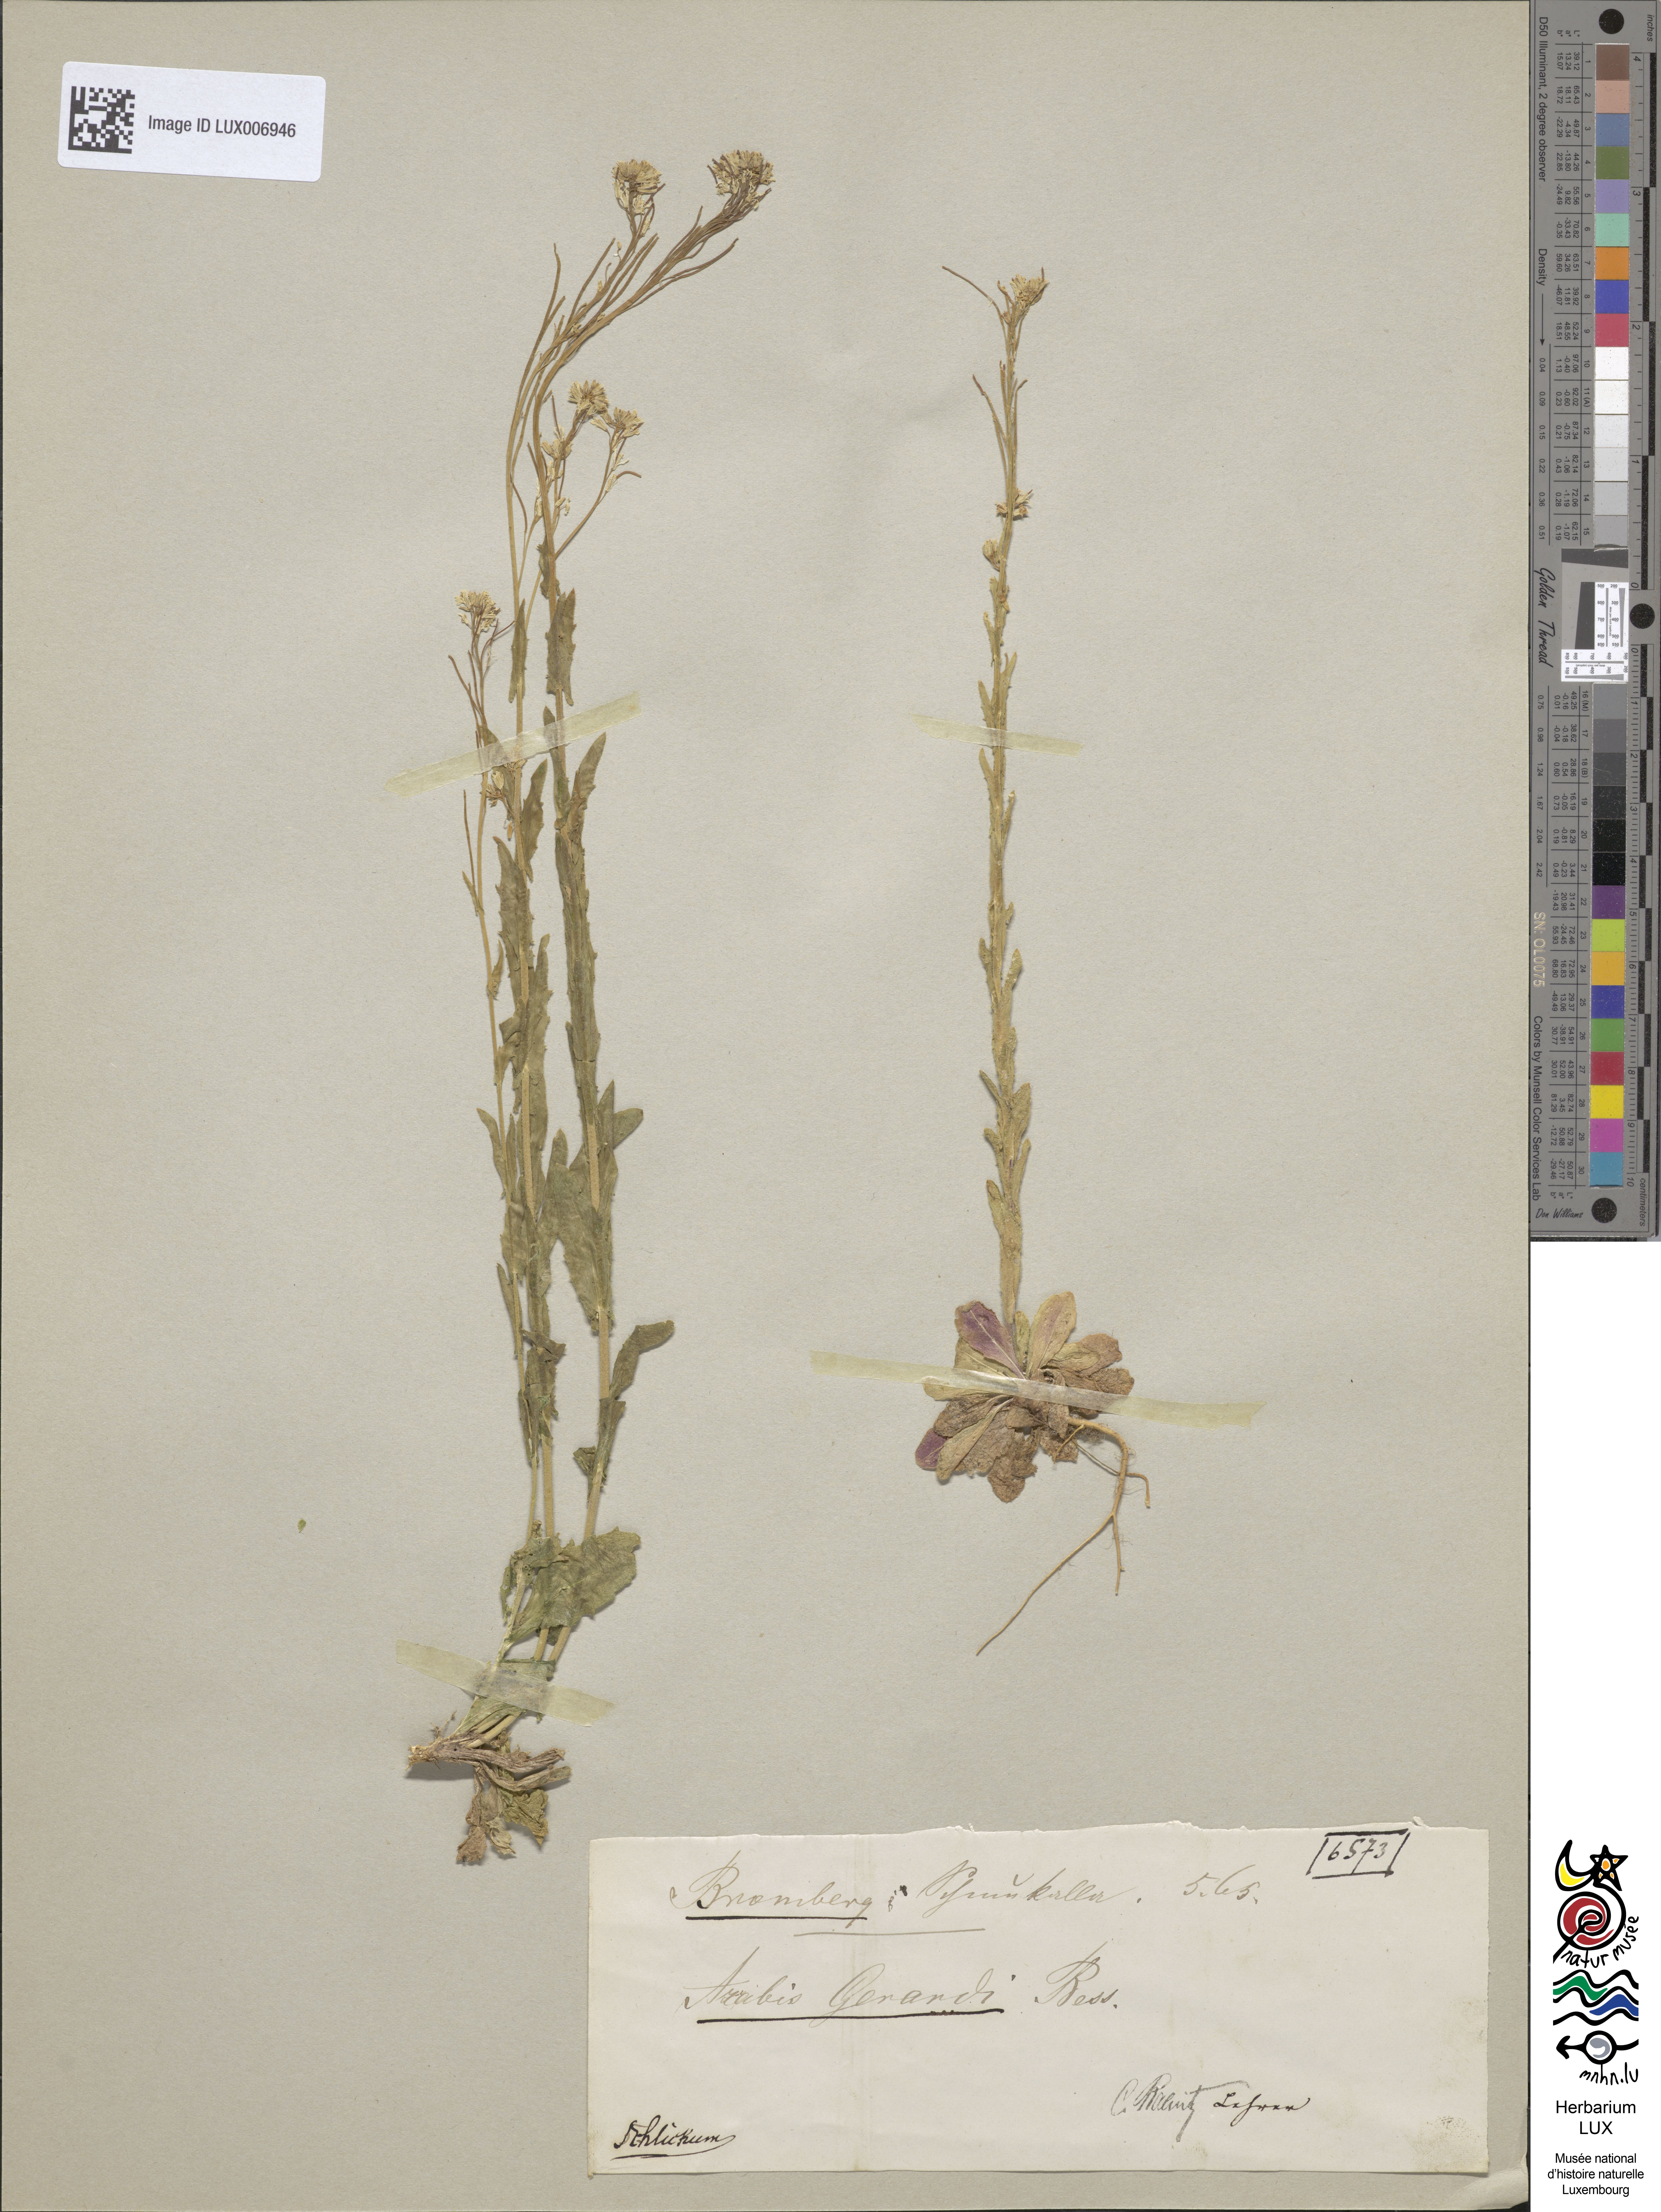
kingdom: Plantae
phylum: Tracheophyta
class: Magnoliopsida
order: Brassicales
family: Brassicaceae
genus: Arabis
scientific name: Arabis planisiliqua
